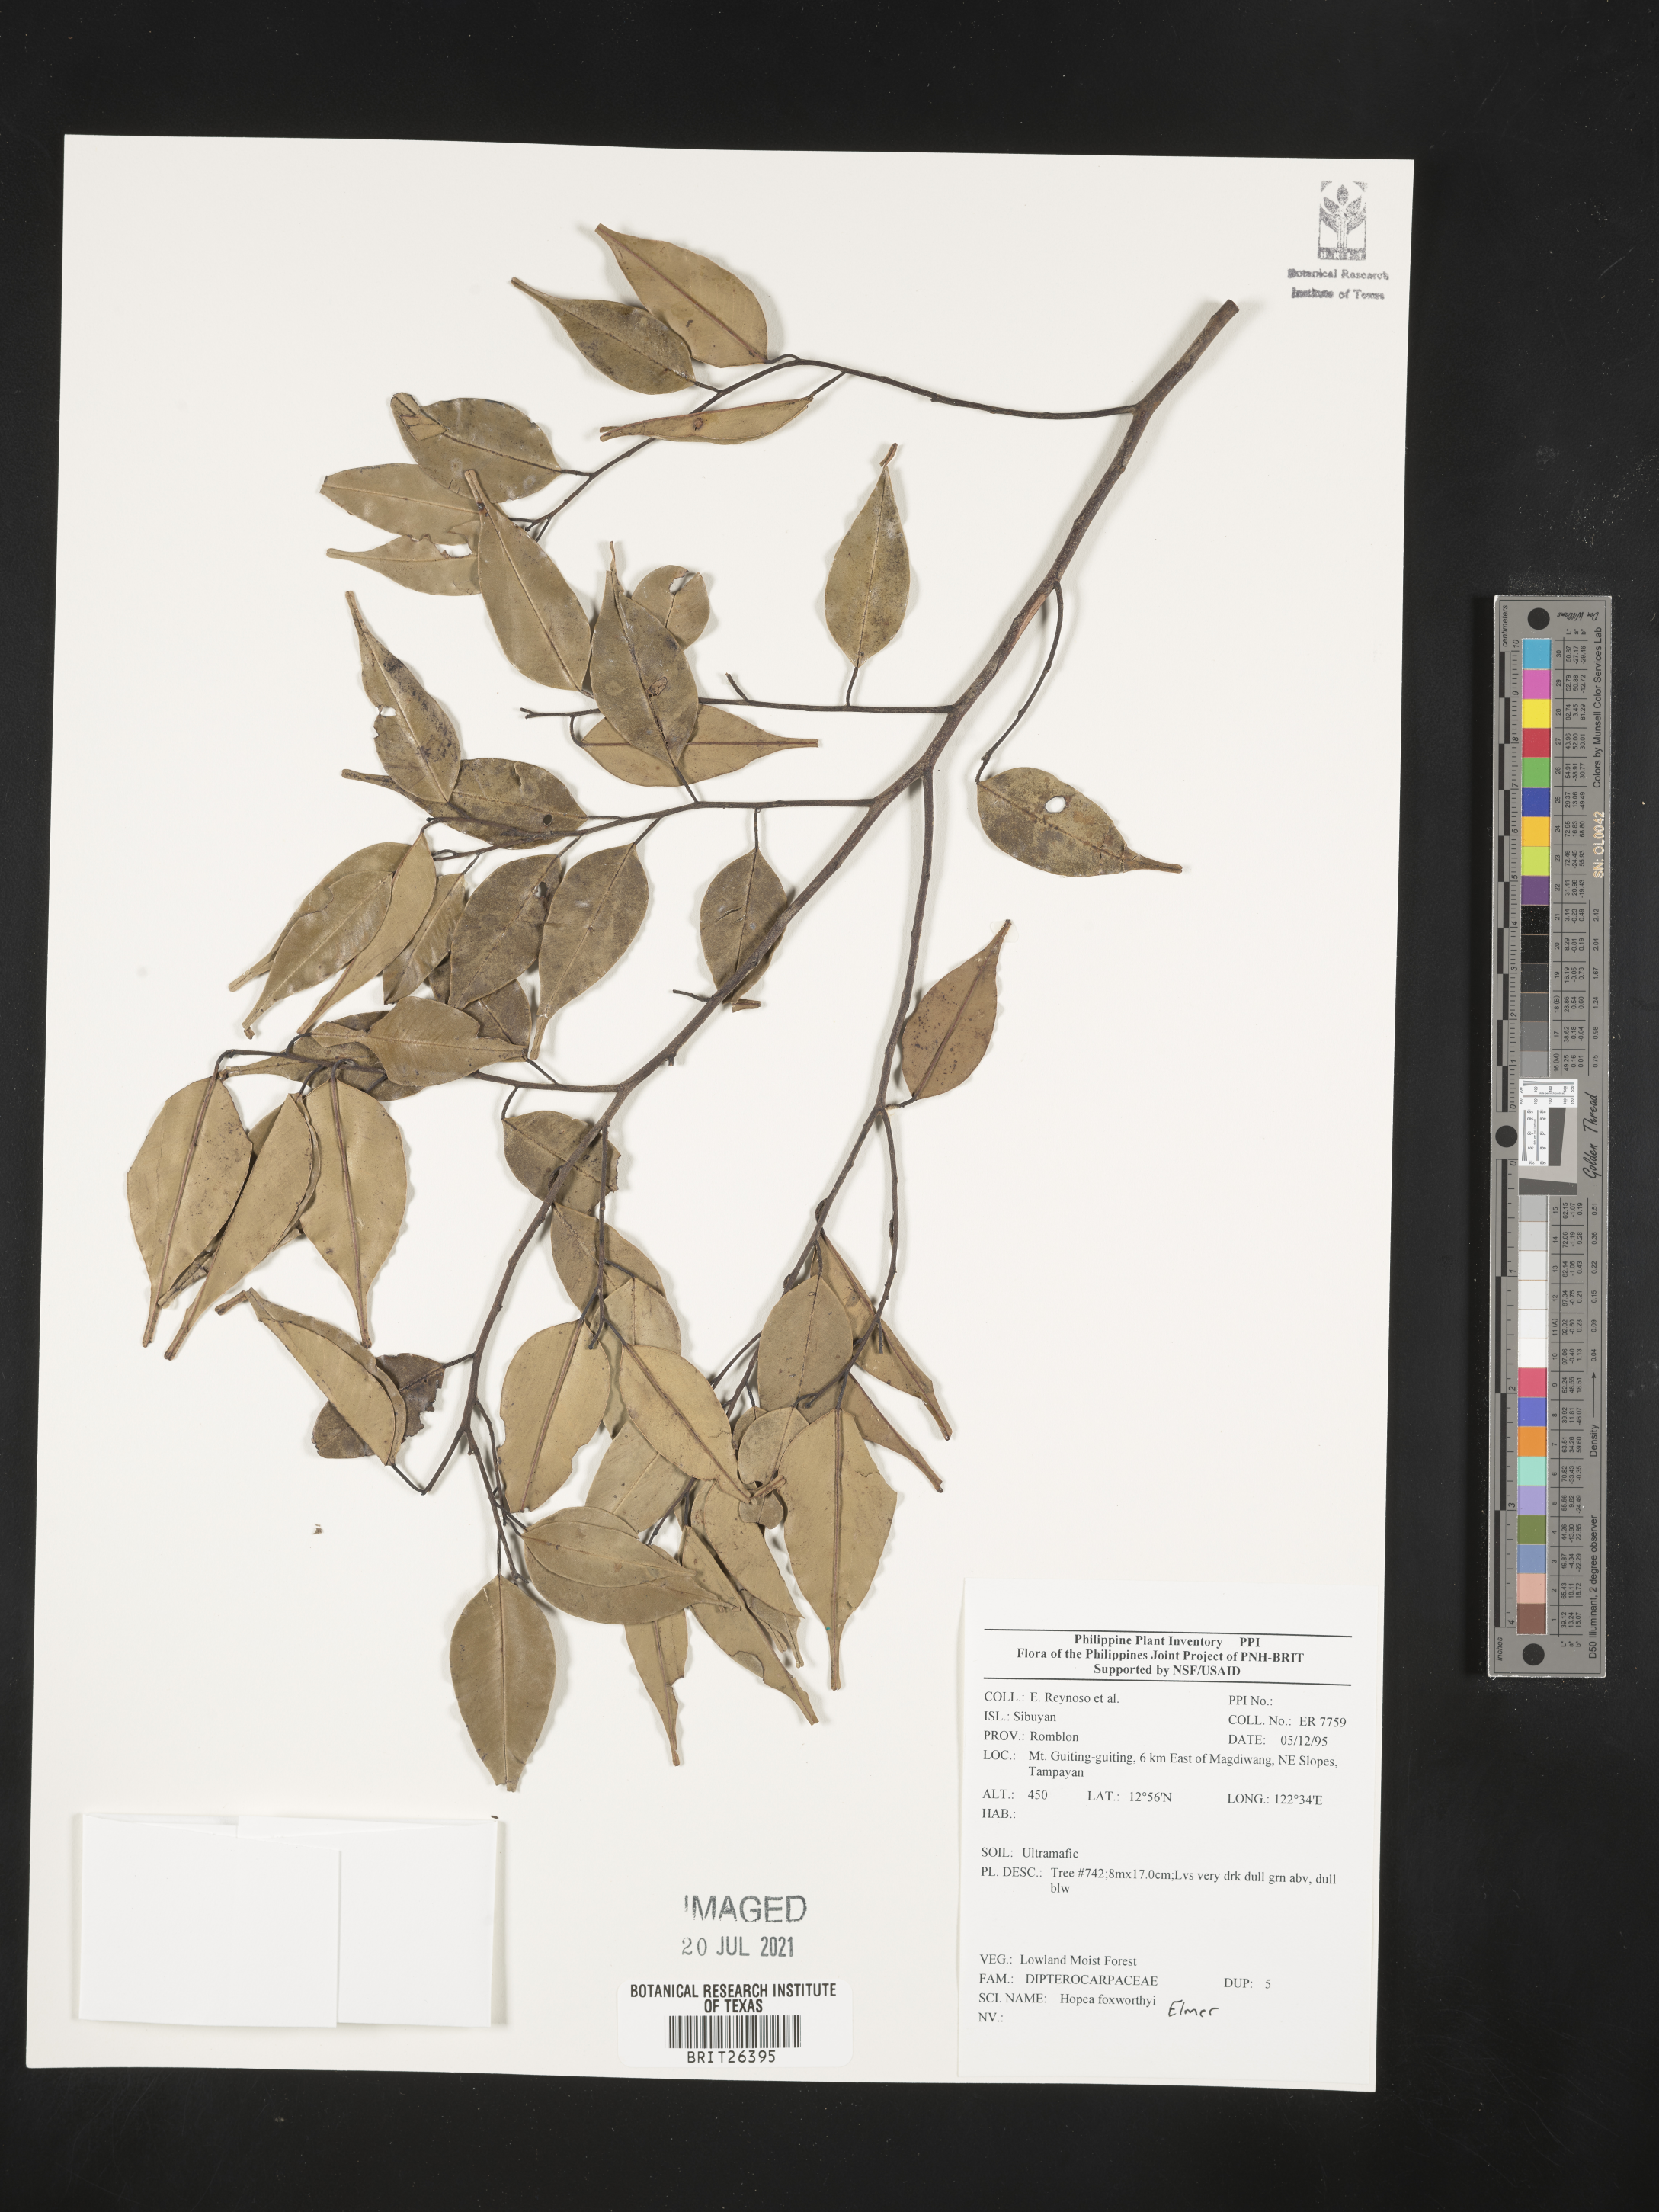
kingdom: Plantae
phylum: Tracheophyta
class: Magnoliopsida
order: Malvales
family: Dipterocarpaceae
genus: Hopea
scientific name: Hopea foxworthyi
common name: Dalingdingan
